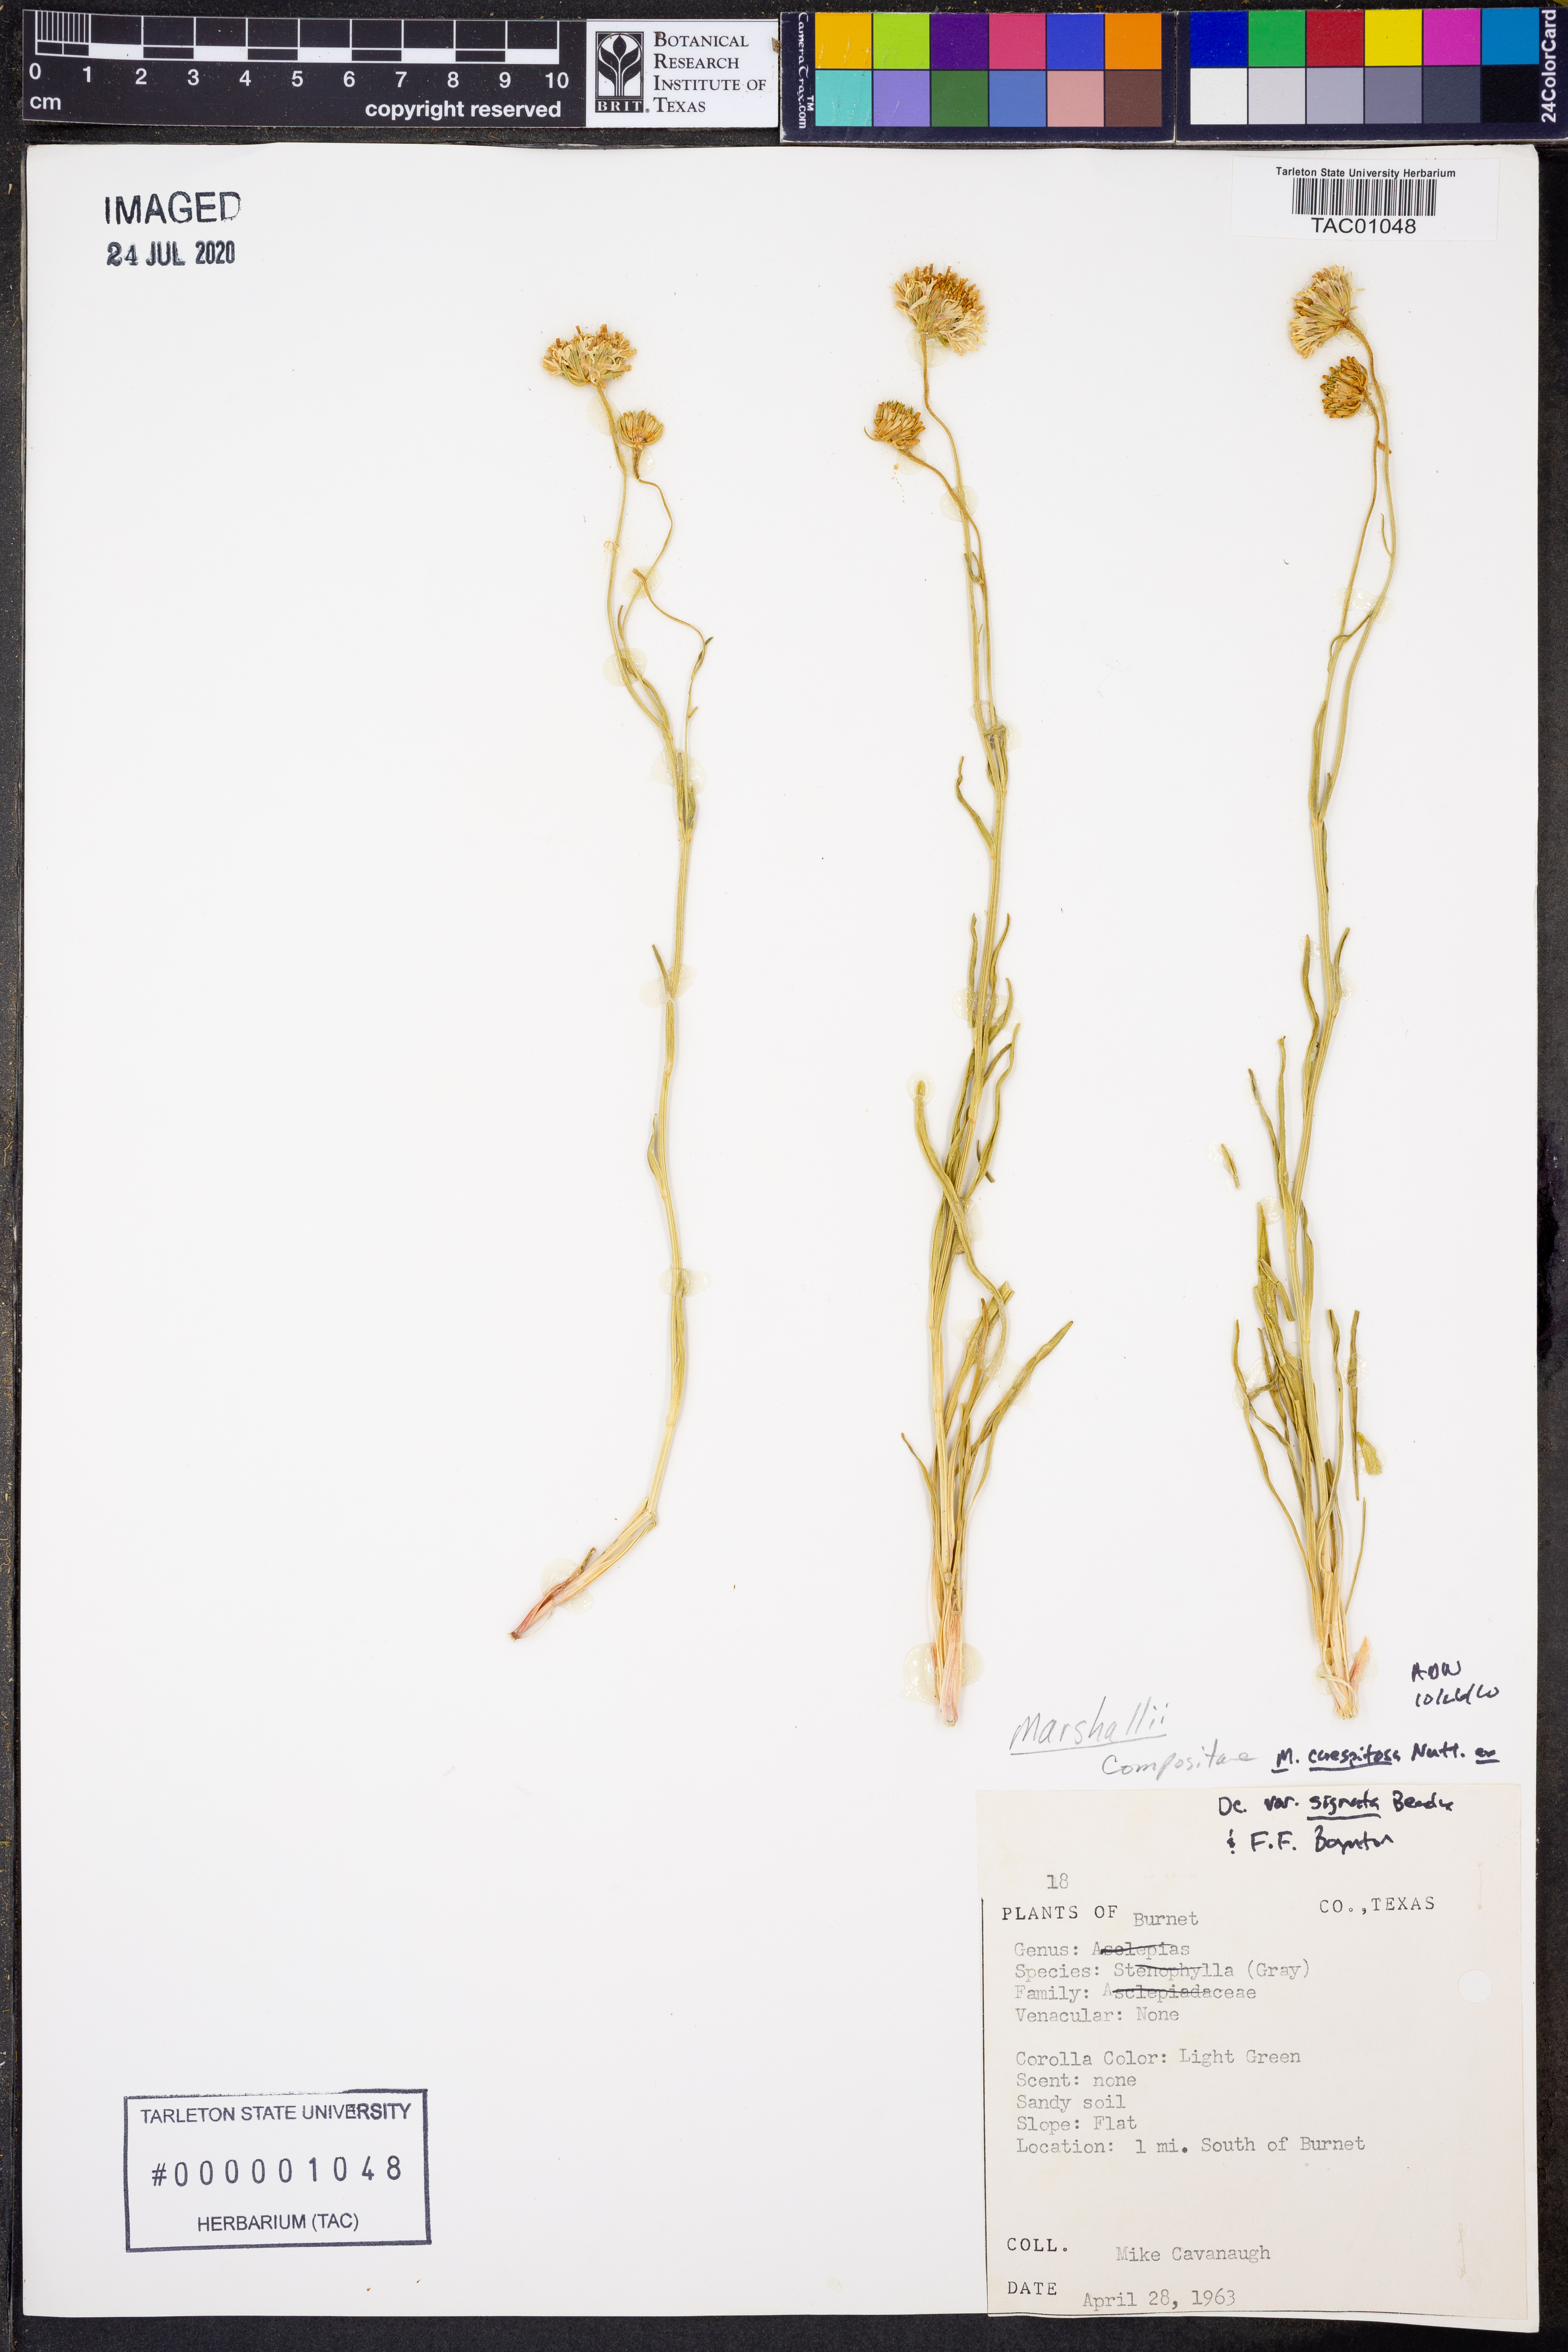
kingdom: Plantae
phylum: Tracheophyta
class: Magnoliopsida
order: Asterales
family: Asteraceae
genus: Marshallia
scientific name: Marshallia caespitosa
